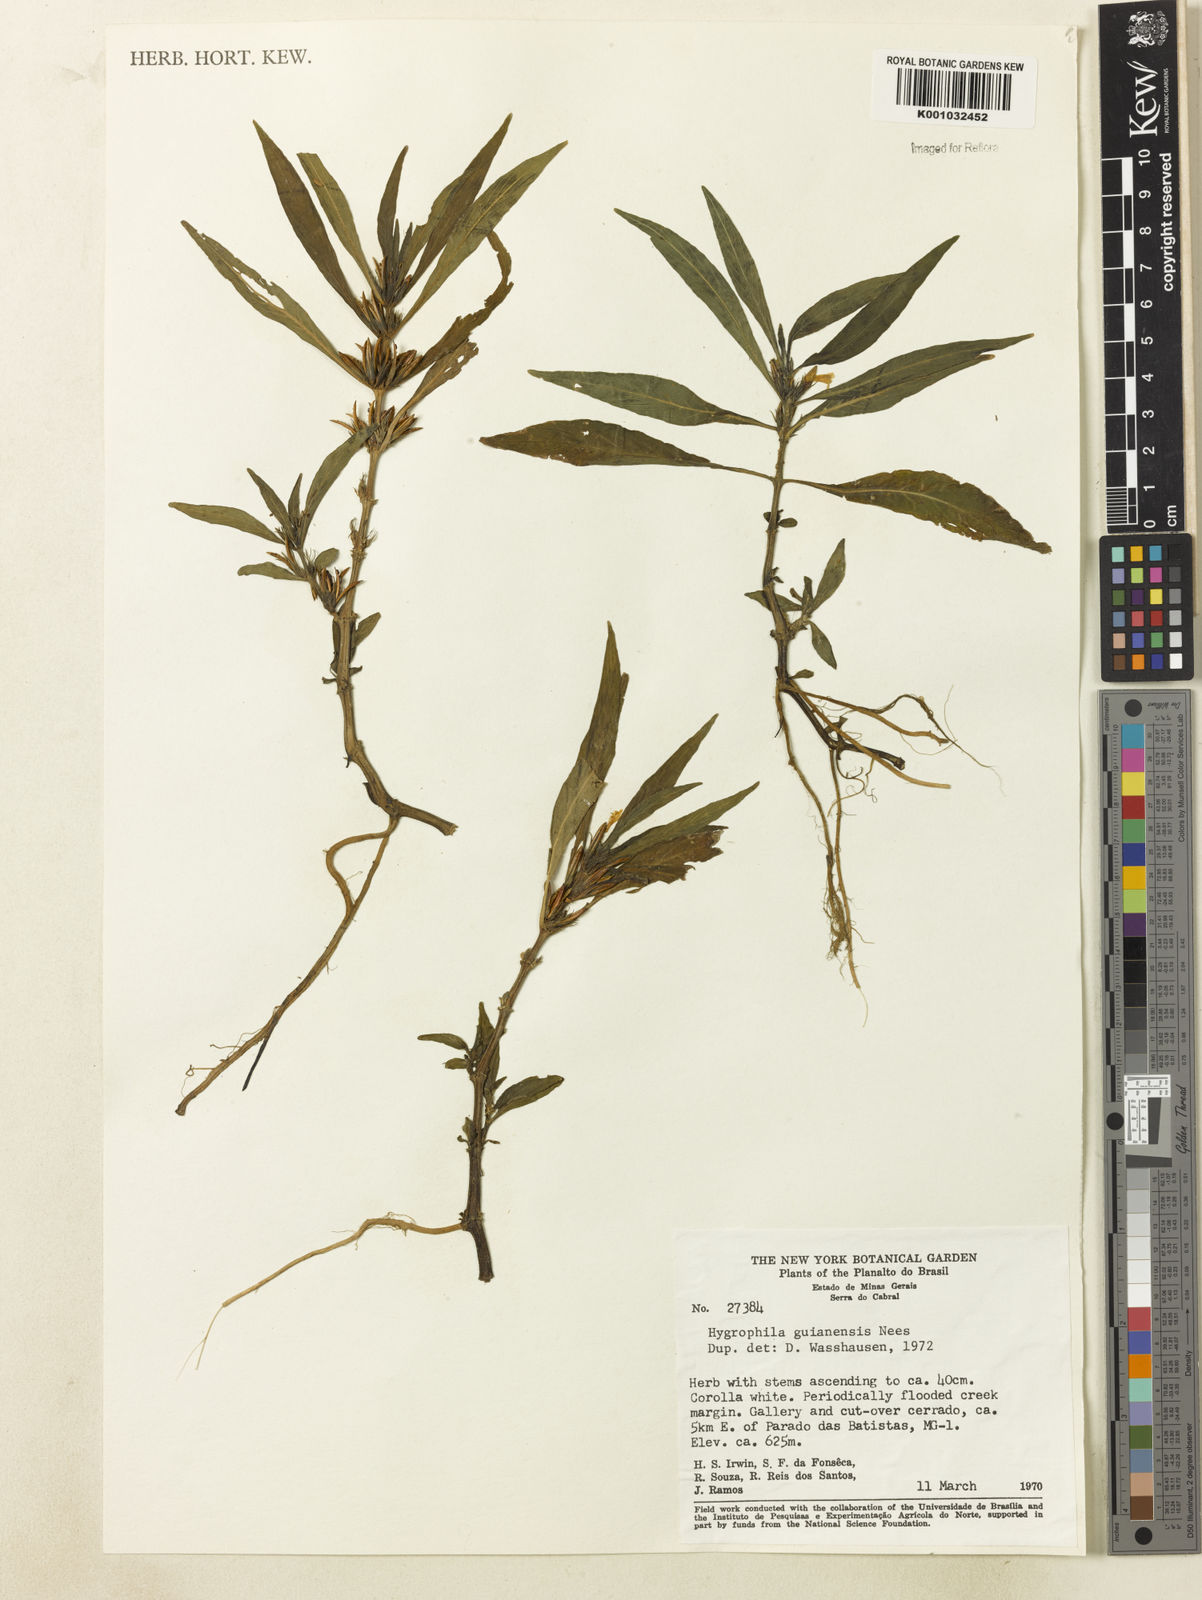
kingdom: Plantae
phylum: Tracheophyta
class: Magnoliopsida
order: Lamiales
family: Acanthaceae
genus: Hygrophila
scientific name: Hygrophila costata
